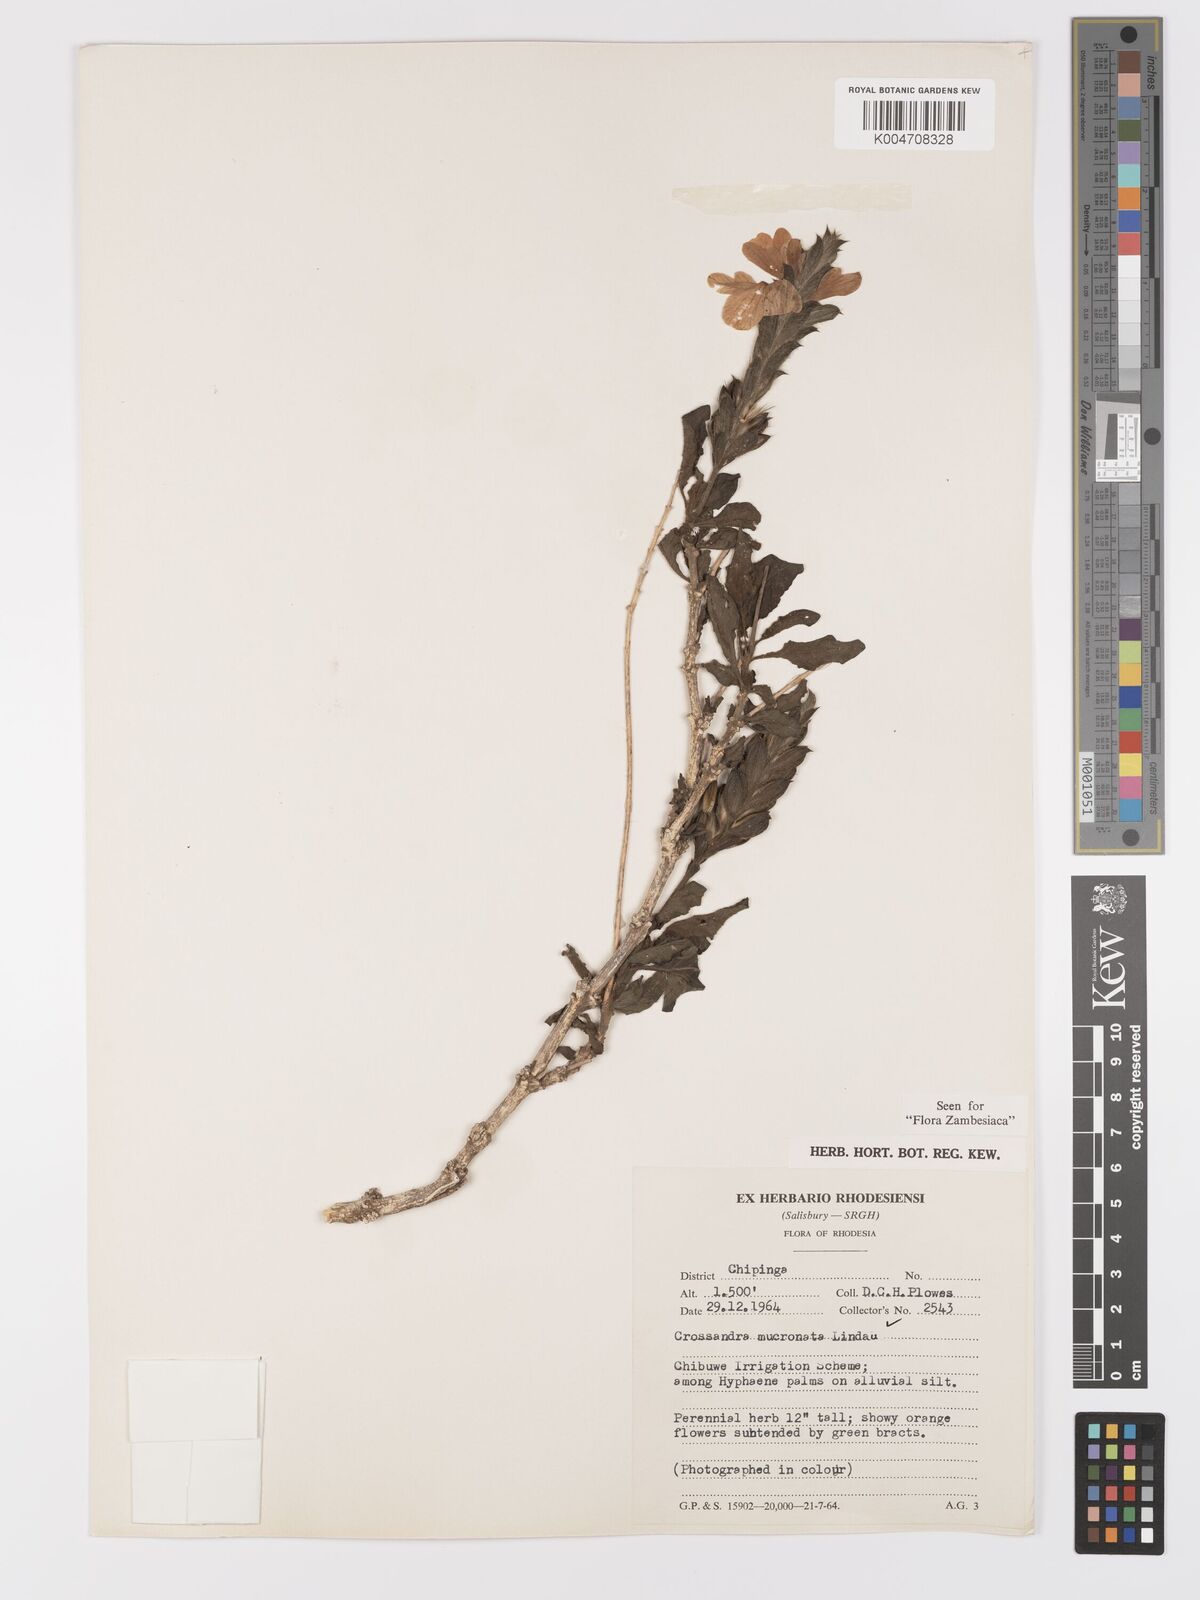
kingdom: Plantae
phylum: Tracheophyta
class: Magnoliopsida
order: Lamiales
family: Acanthaceae
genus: Crossandra
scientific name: Crossandra mucronata
